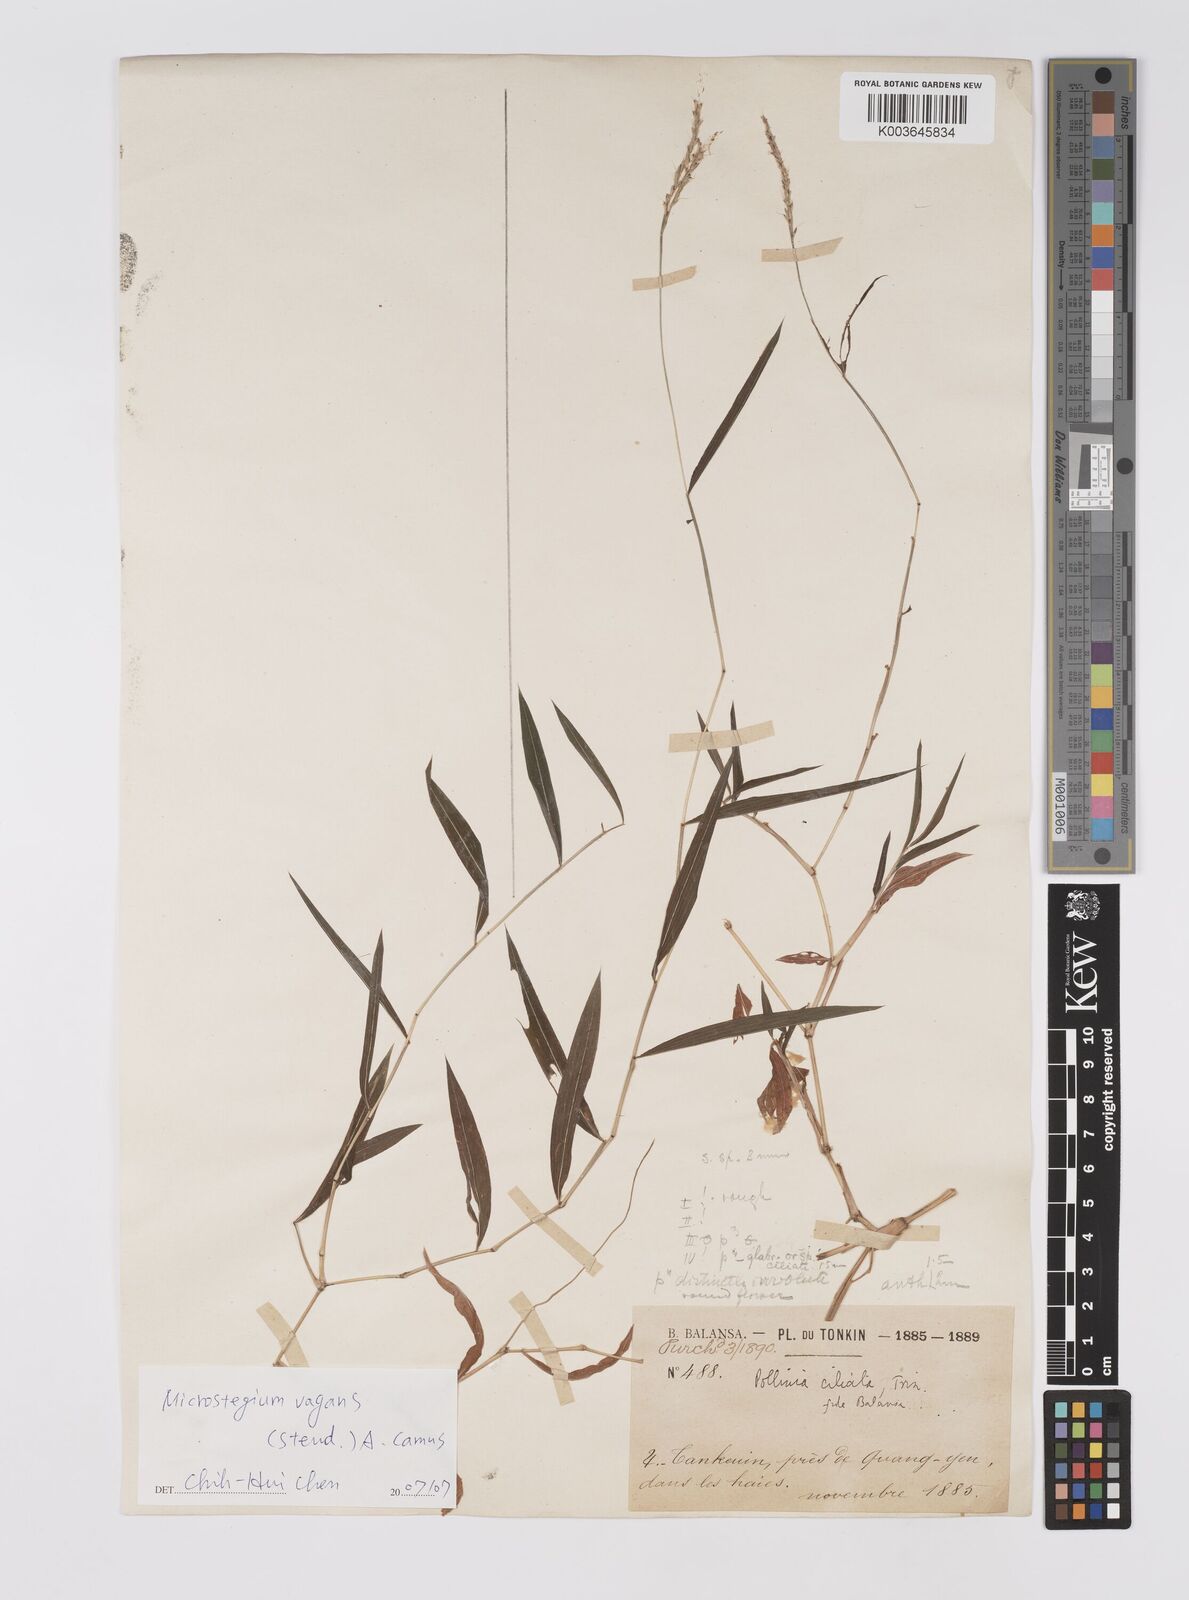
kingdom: Plantae
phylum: Tracheophyta
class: Liliopsida
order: Poales
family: Poaceae
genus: Microstegium
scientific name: Microstegium fasciculatum
